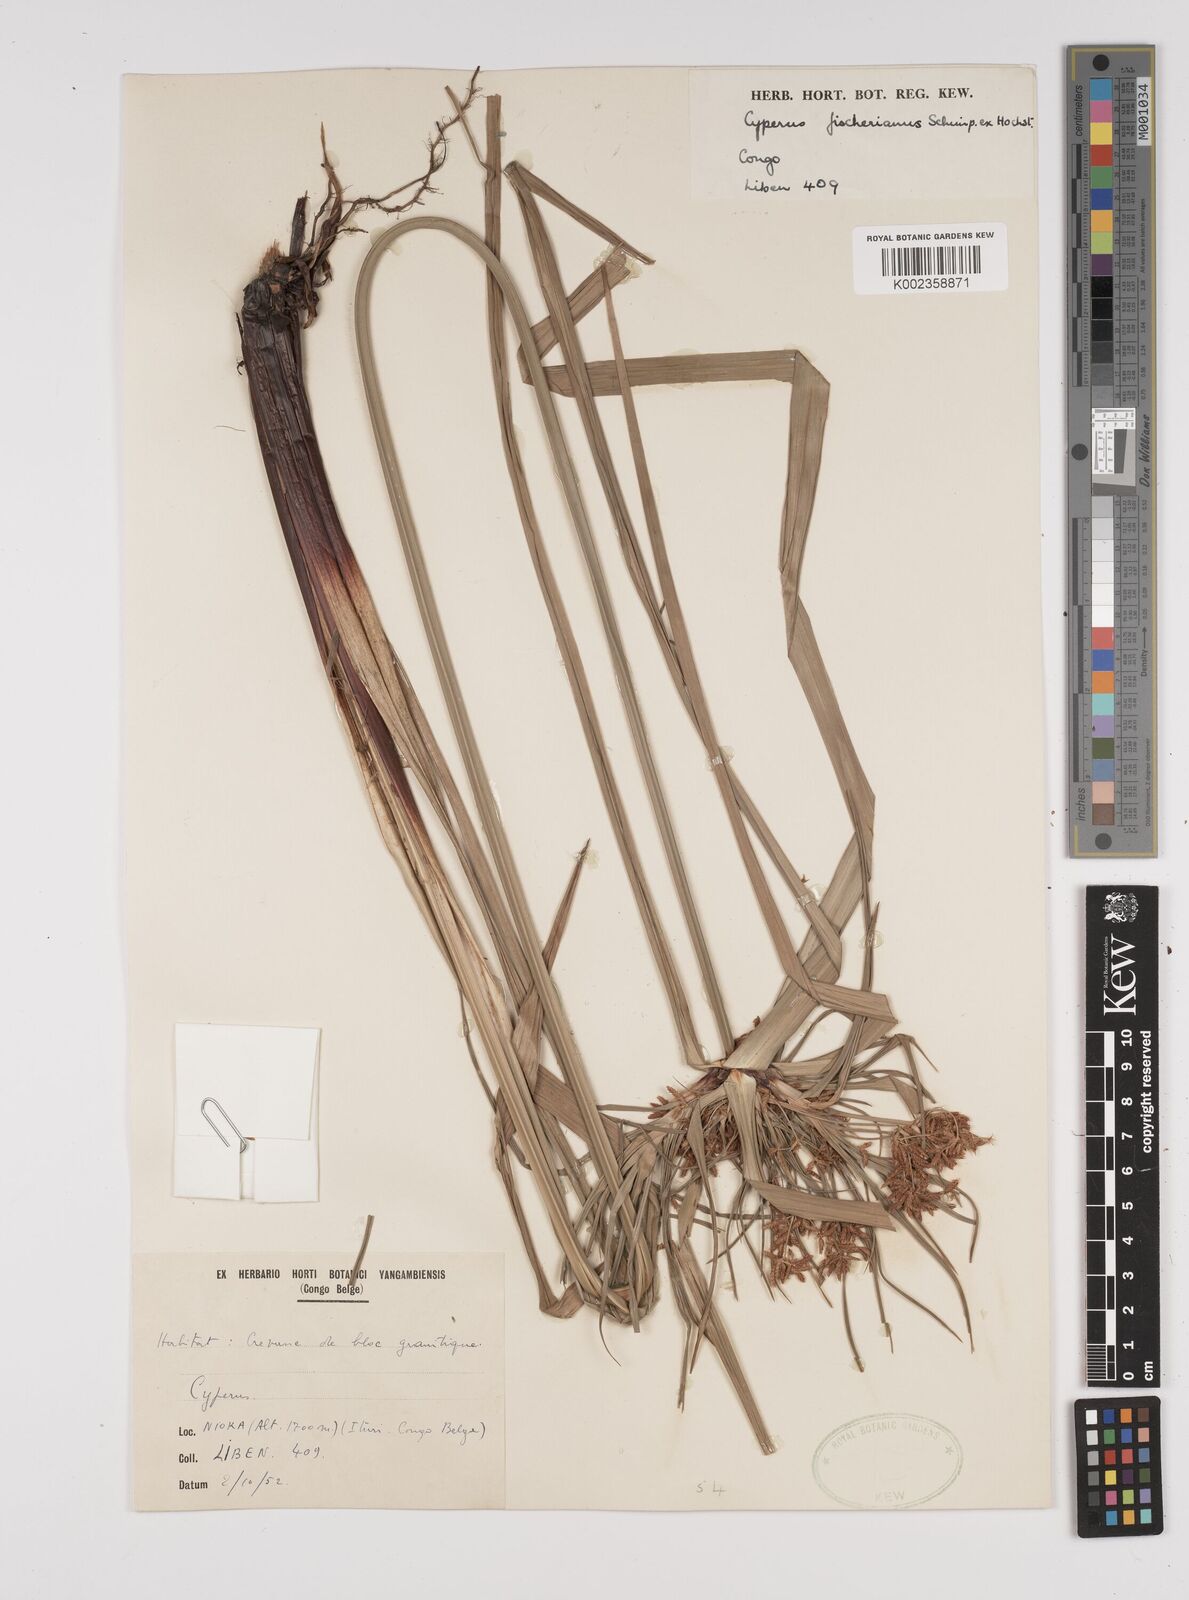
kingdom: Plantae
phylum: Tracheophyta
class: Liliopsida
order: Poales
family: Cyperaceae
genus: Cyperus
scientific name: Cyperus fischerianus
